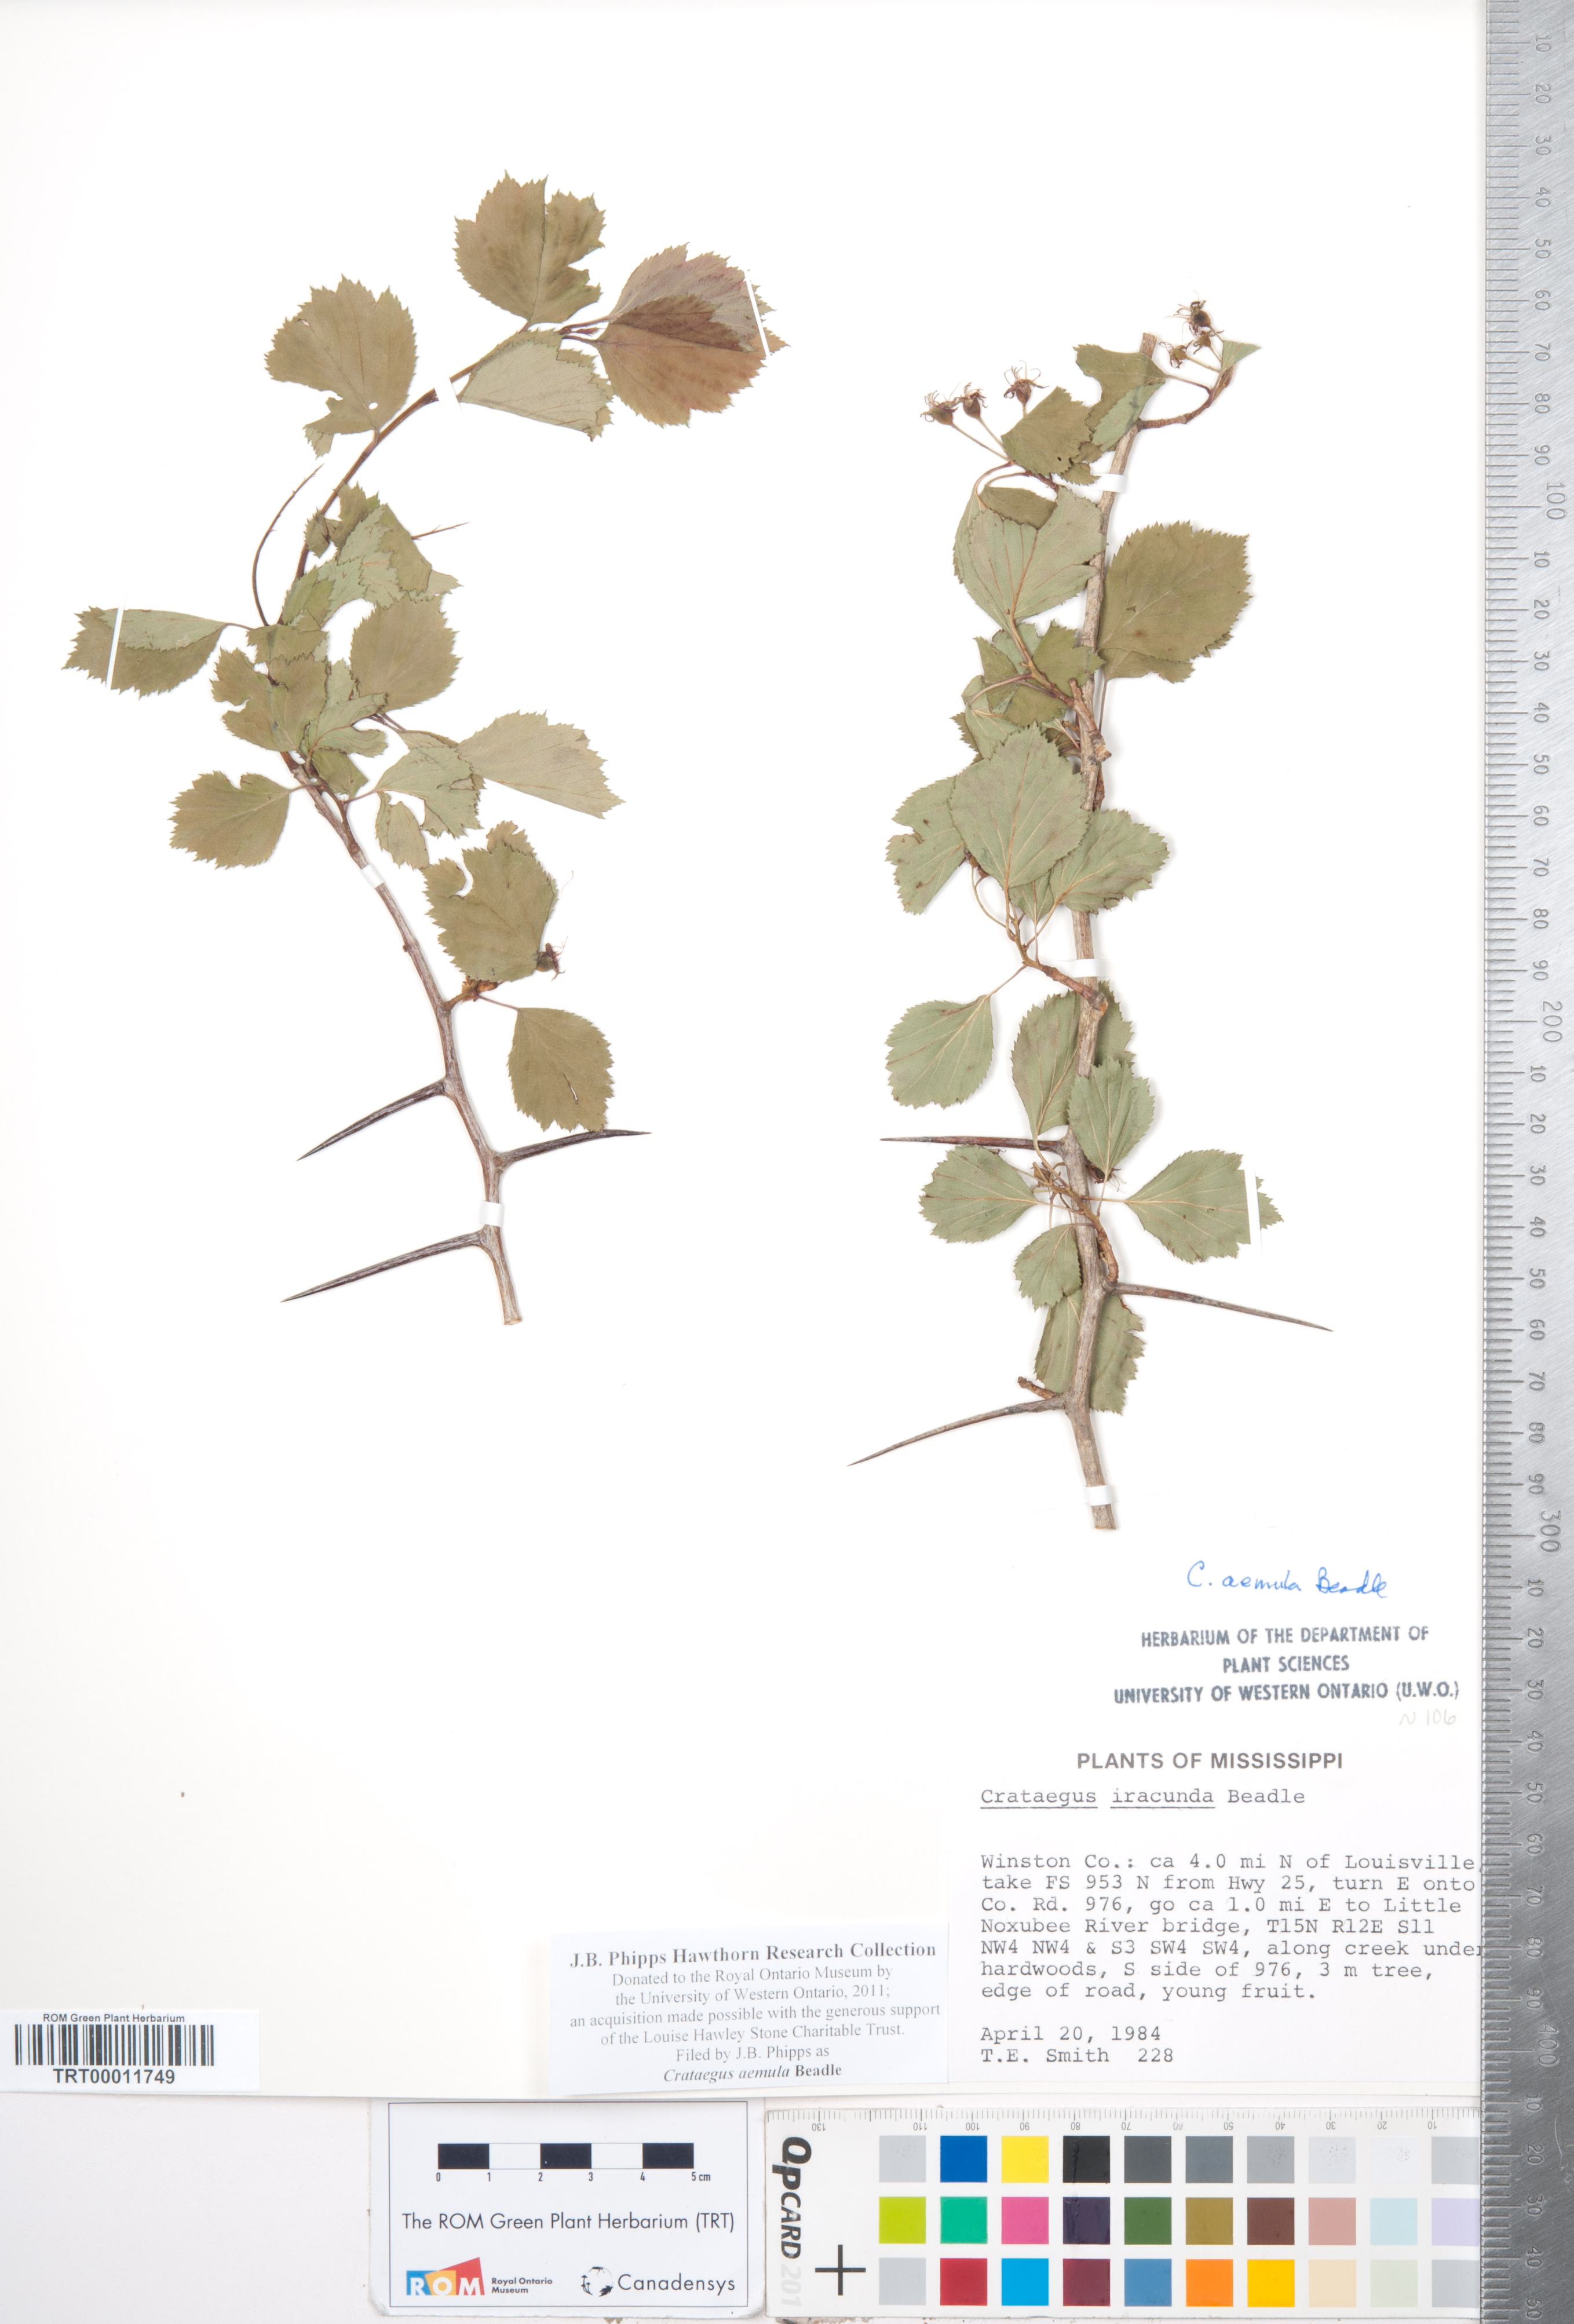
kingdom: Plantae
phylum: Tracheophyta
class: Magnoliopsida
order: Rosales
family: Rosaceae
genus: Crataegus
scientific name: Crataegus iracunda
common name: Stolon-bearing hawthorn
